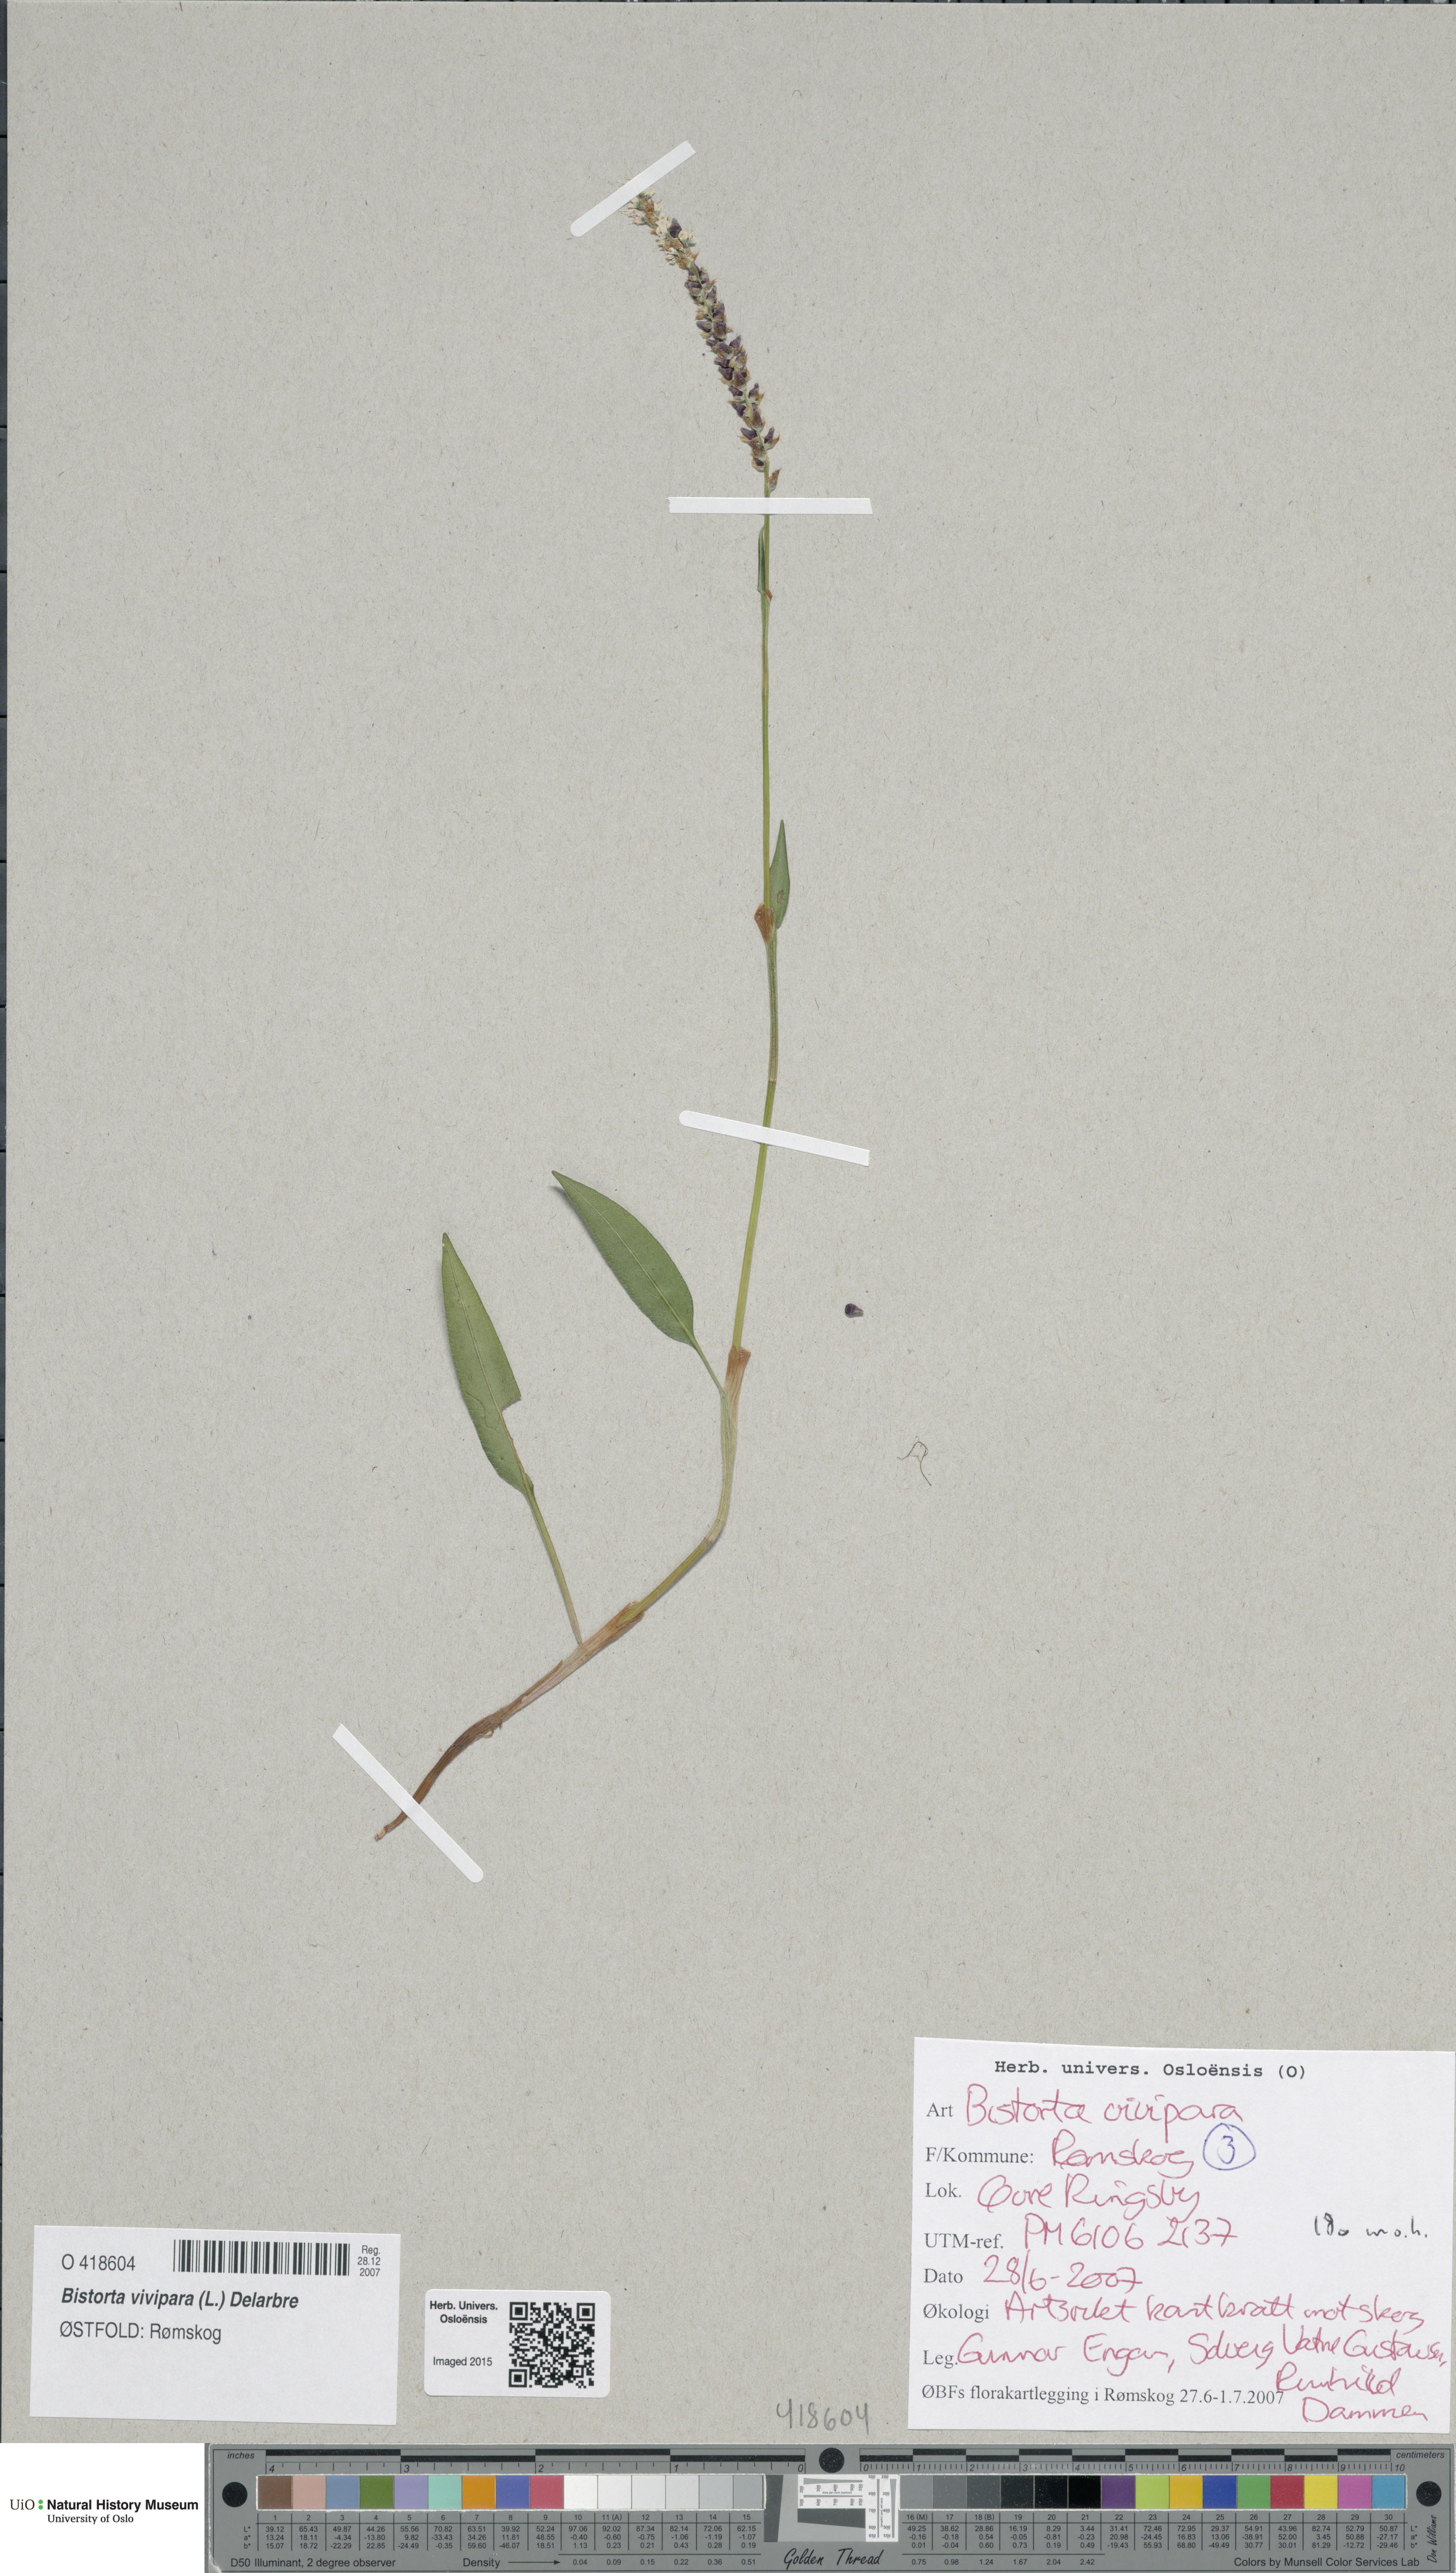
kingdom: Plantae
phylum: Tracheophyta
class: Magnoliopsida
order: Caryophyllales
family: Polygonaceae
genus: Bistorta
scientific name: Bistorta vivipara
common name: Alpine bistort
